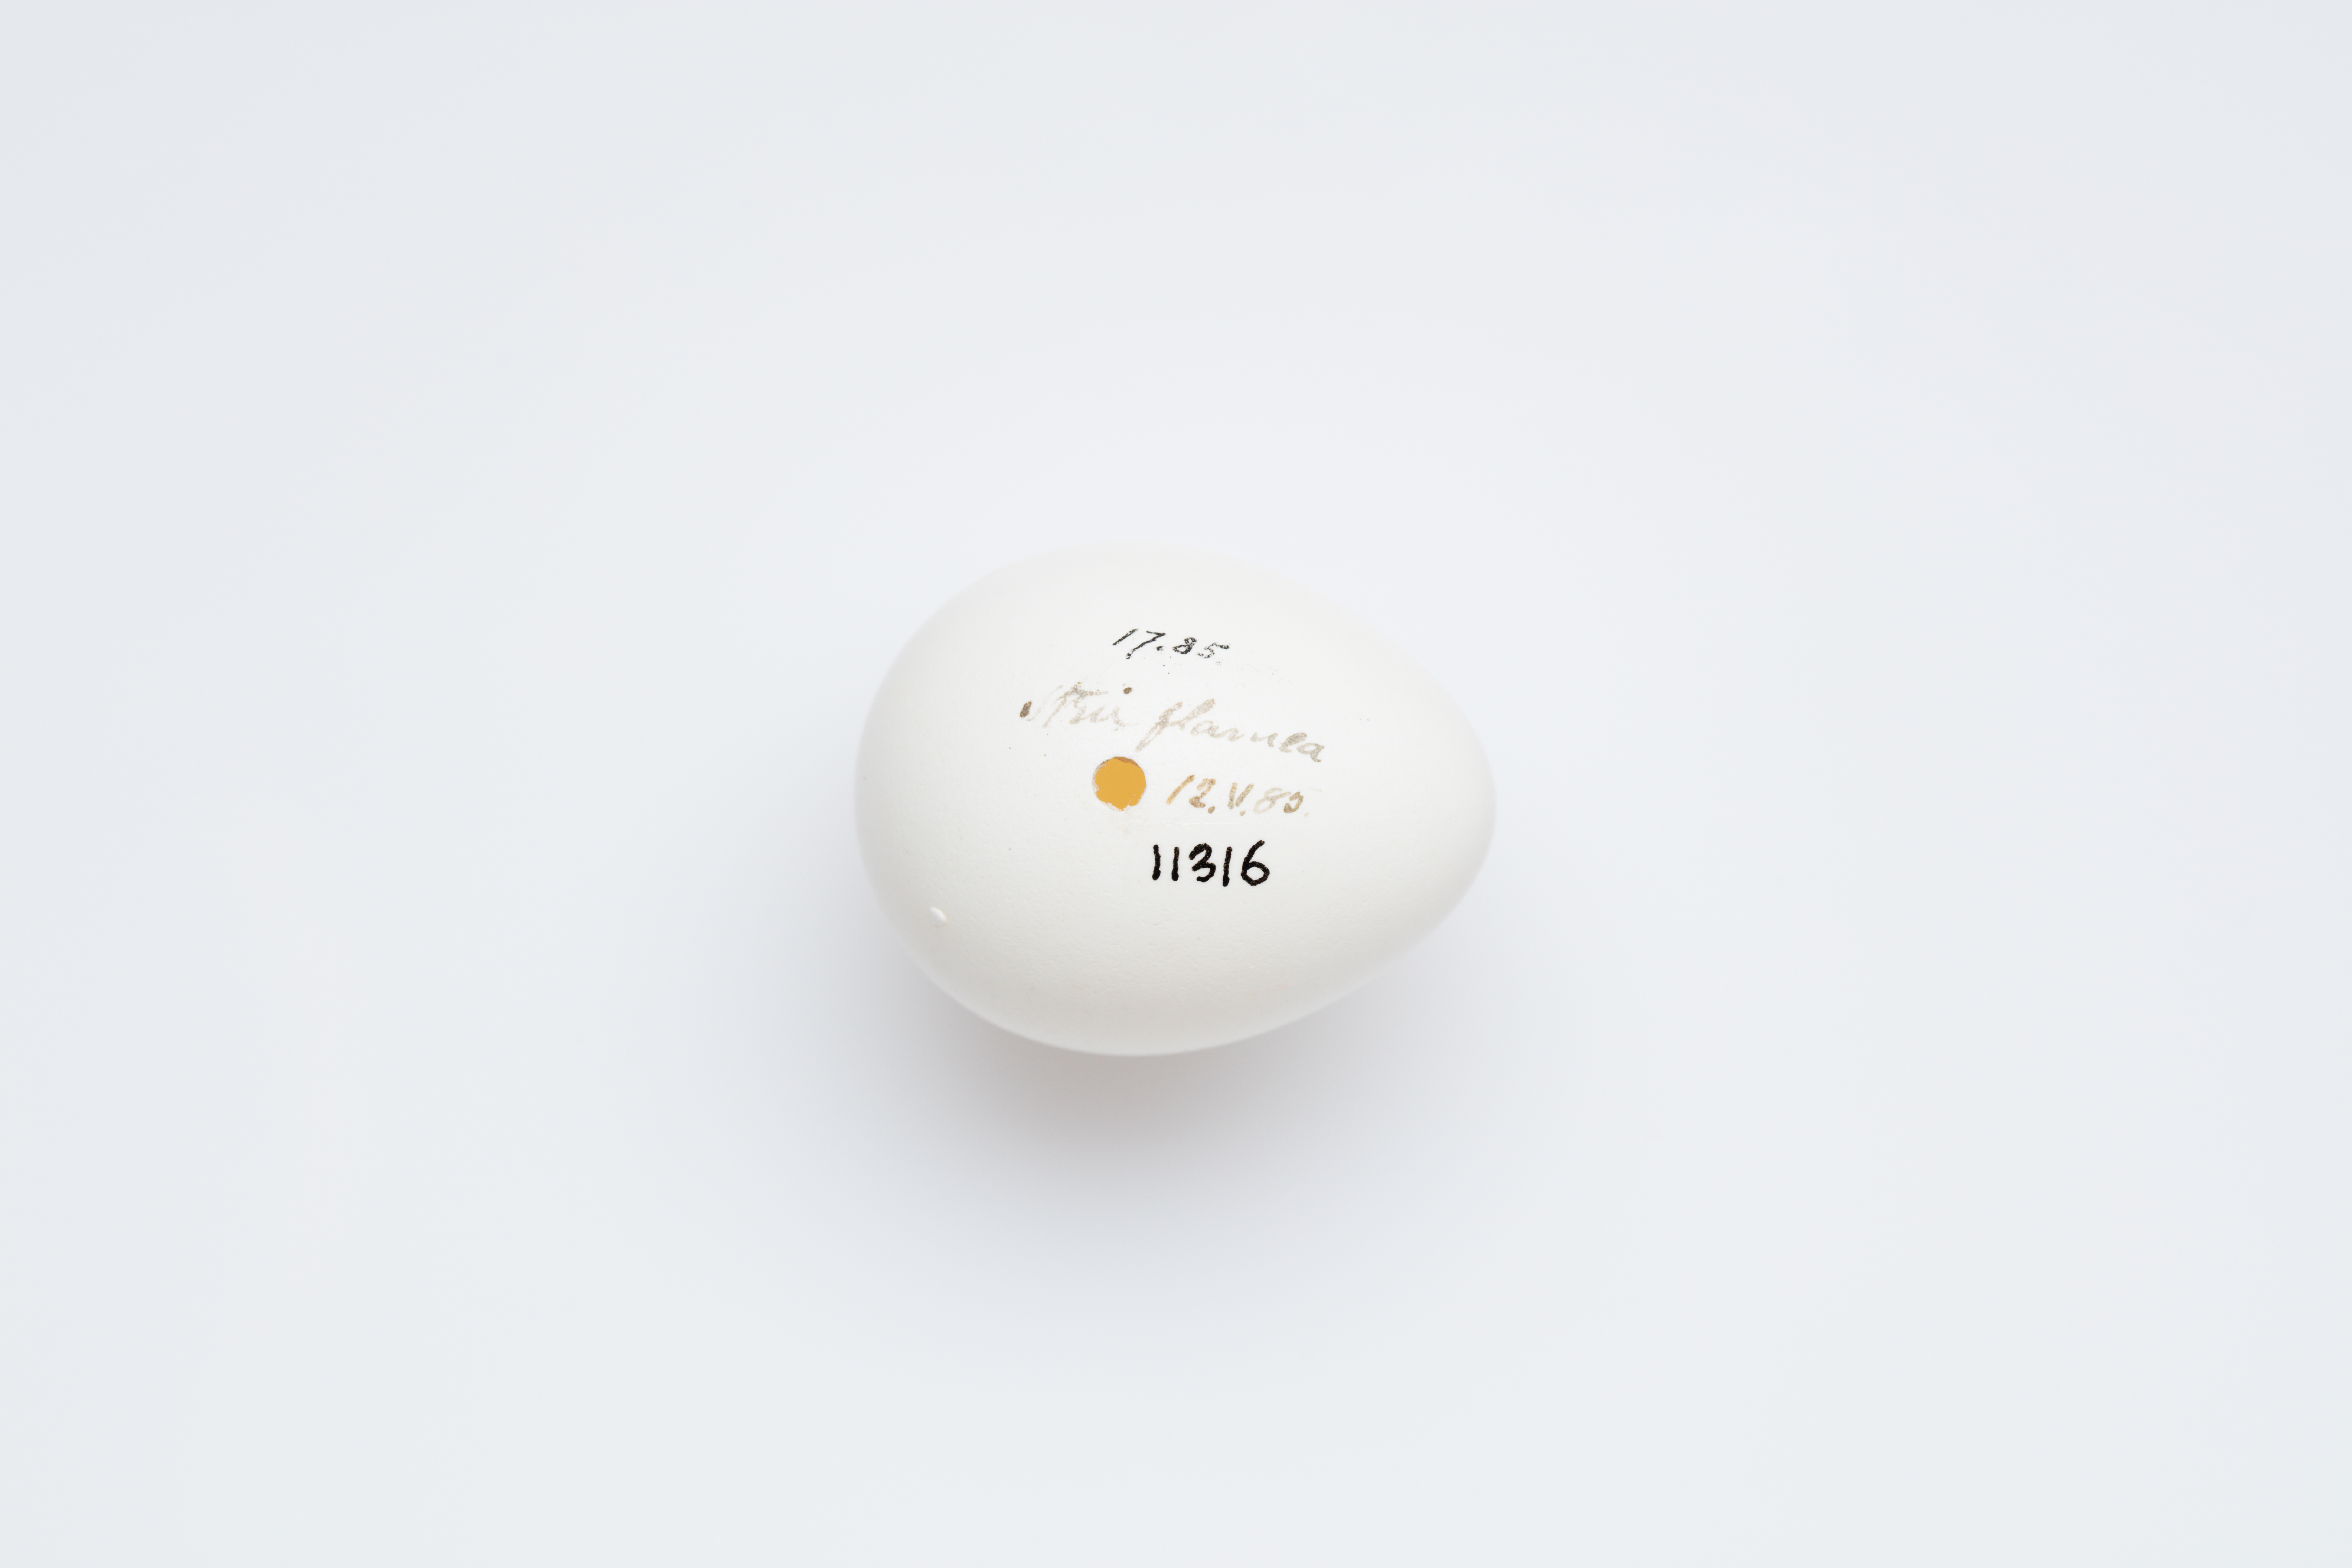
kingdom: Animalia
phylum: Chordata
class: Aves
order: Strigiformes
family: Strigidae
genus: Asio
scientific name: Asio flammeus
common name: Short-eared owl
